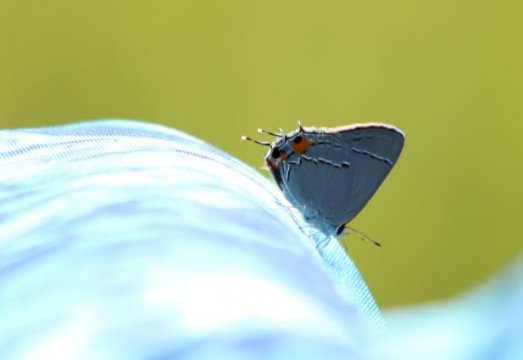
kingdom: Animalia
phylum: Arthropoda
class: Insecta
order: Lepidoptera
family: Lycaenidae
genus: Strymon
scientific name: Strymon melinus
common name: Gray Hairstreak
